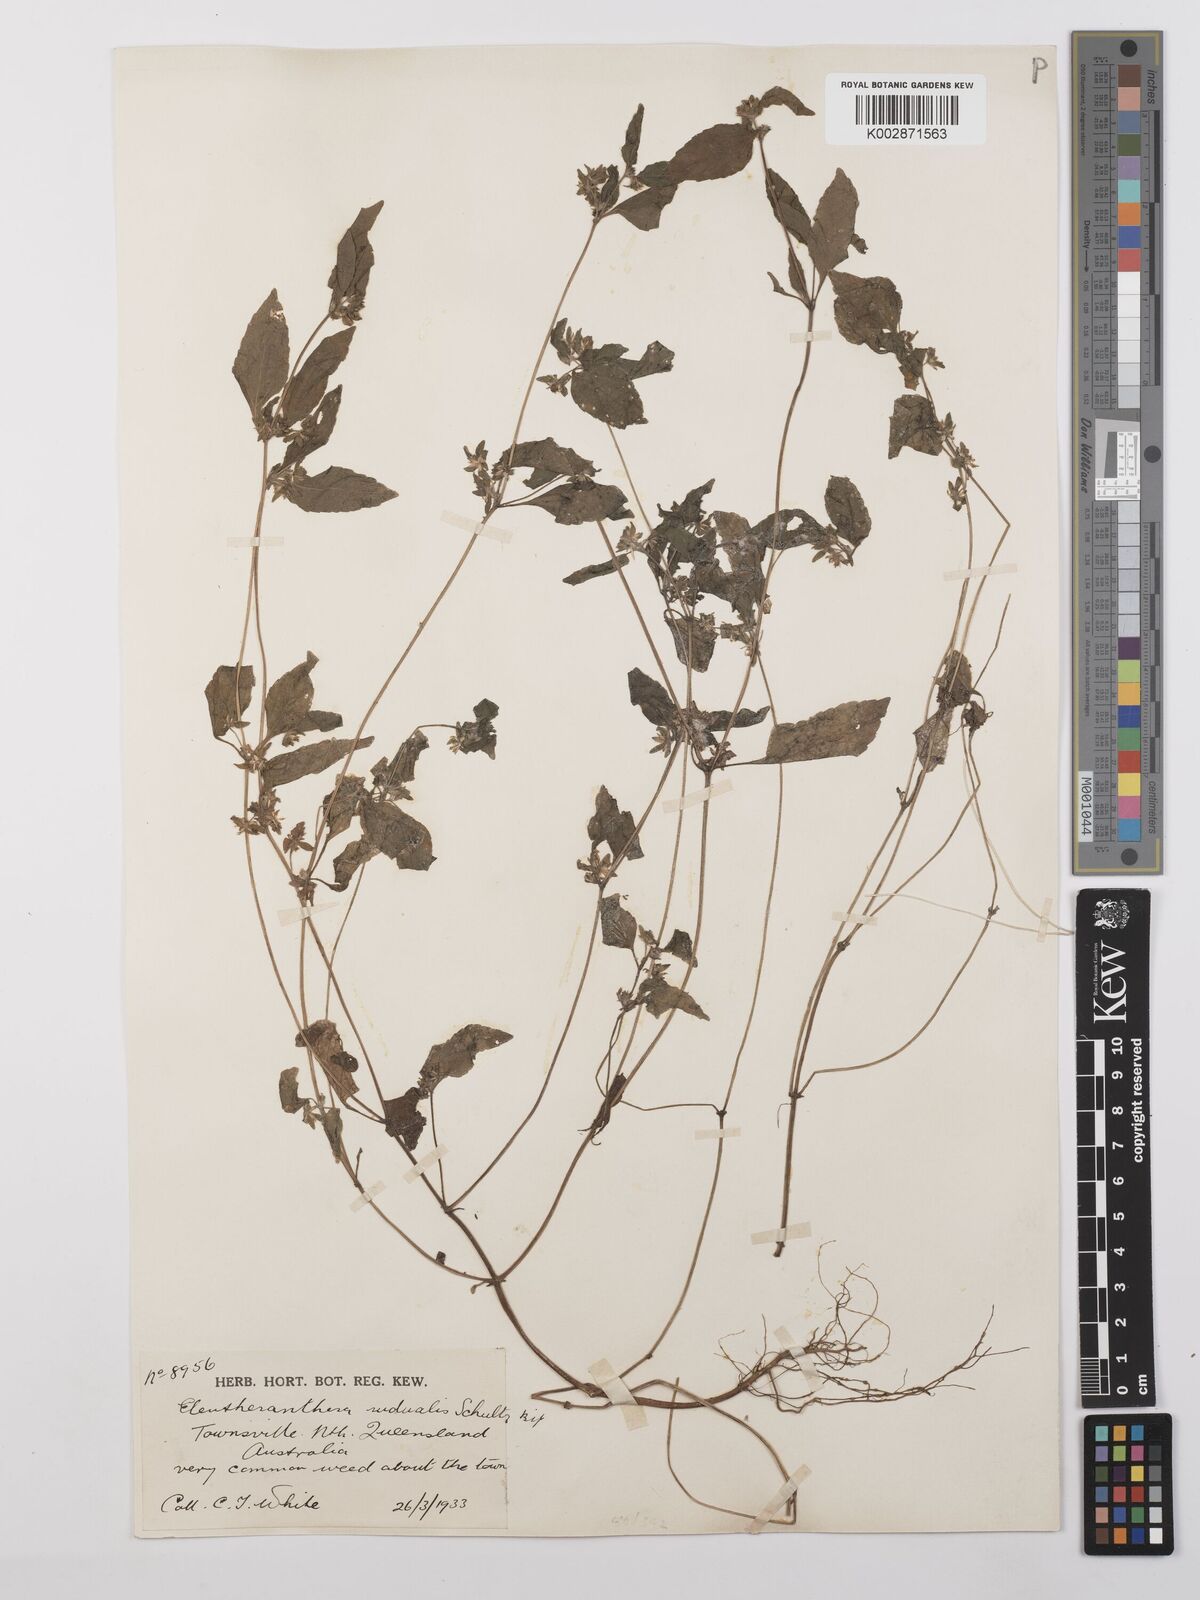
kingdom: Plantae
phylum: Tracheophyta
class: Magnoliopsida
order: Asterales
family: Asteraceae
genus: Eleutheranthera
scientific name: Eleutheranthera ruderalis
